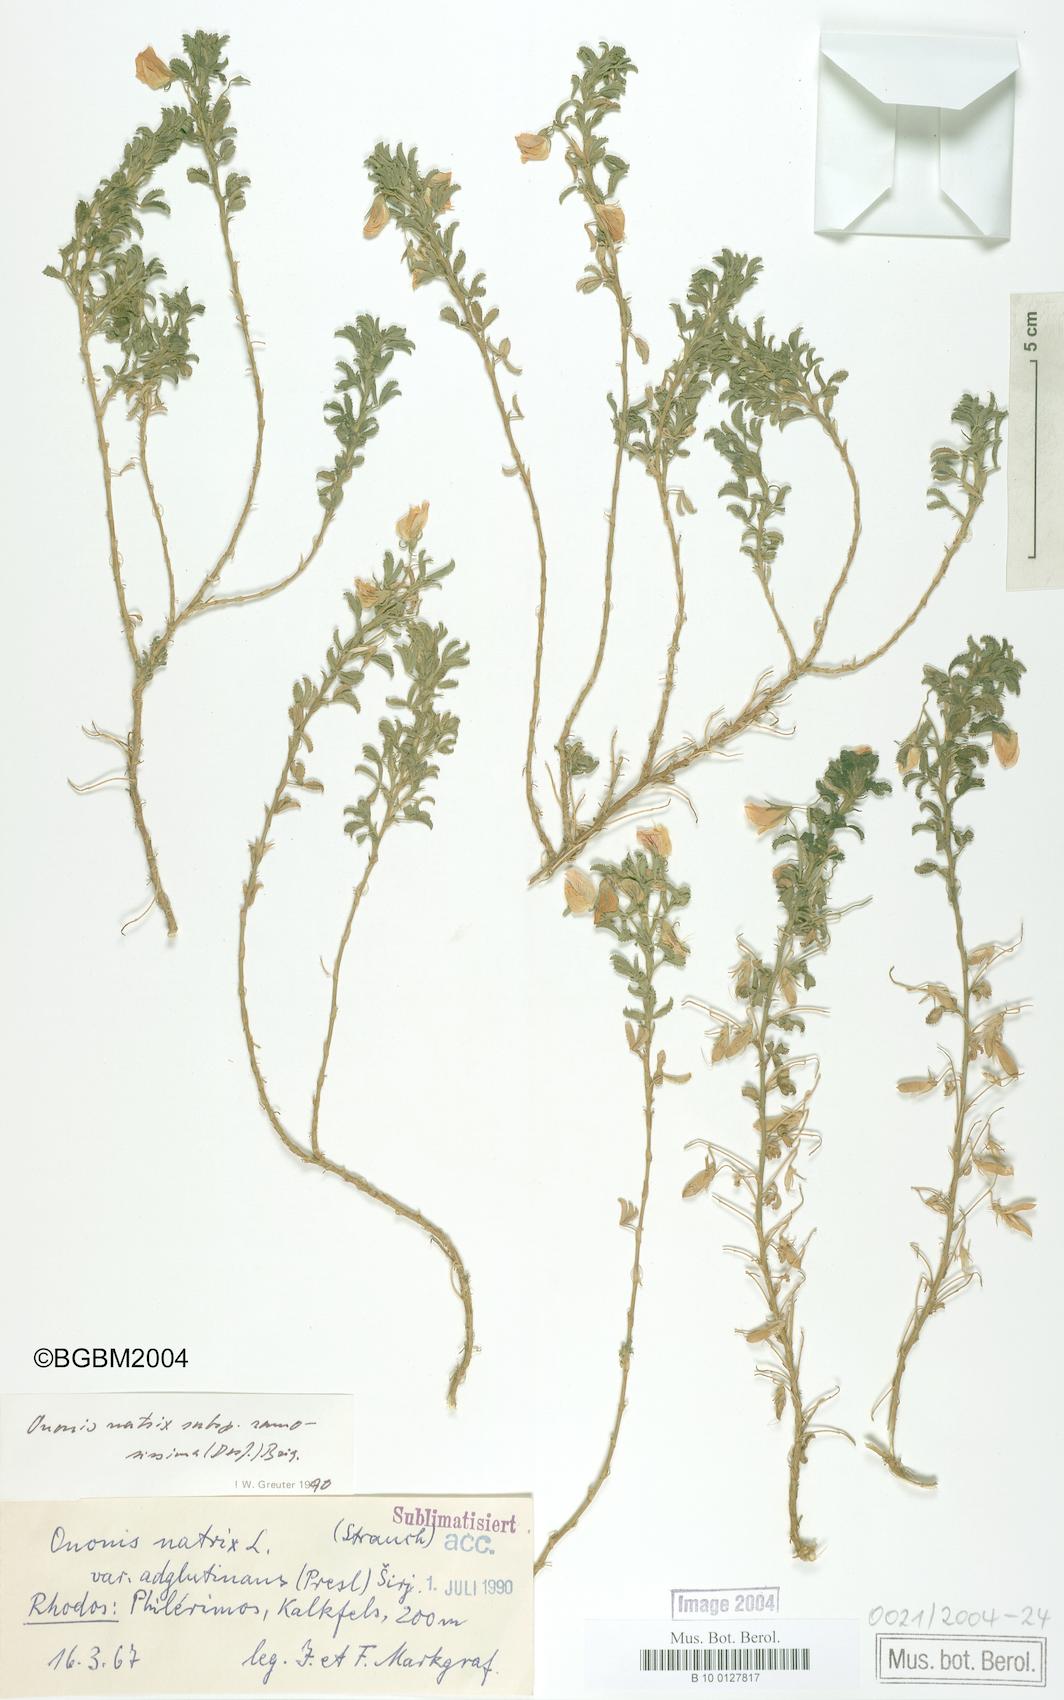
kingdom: Plantae
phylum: Tracheophyta
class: Magnoliopsida
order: Fabales
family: Fabaceae
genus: Ononis
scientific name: Ononis natrix
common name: Yellow restharrow
